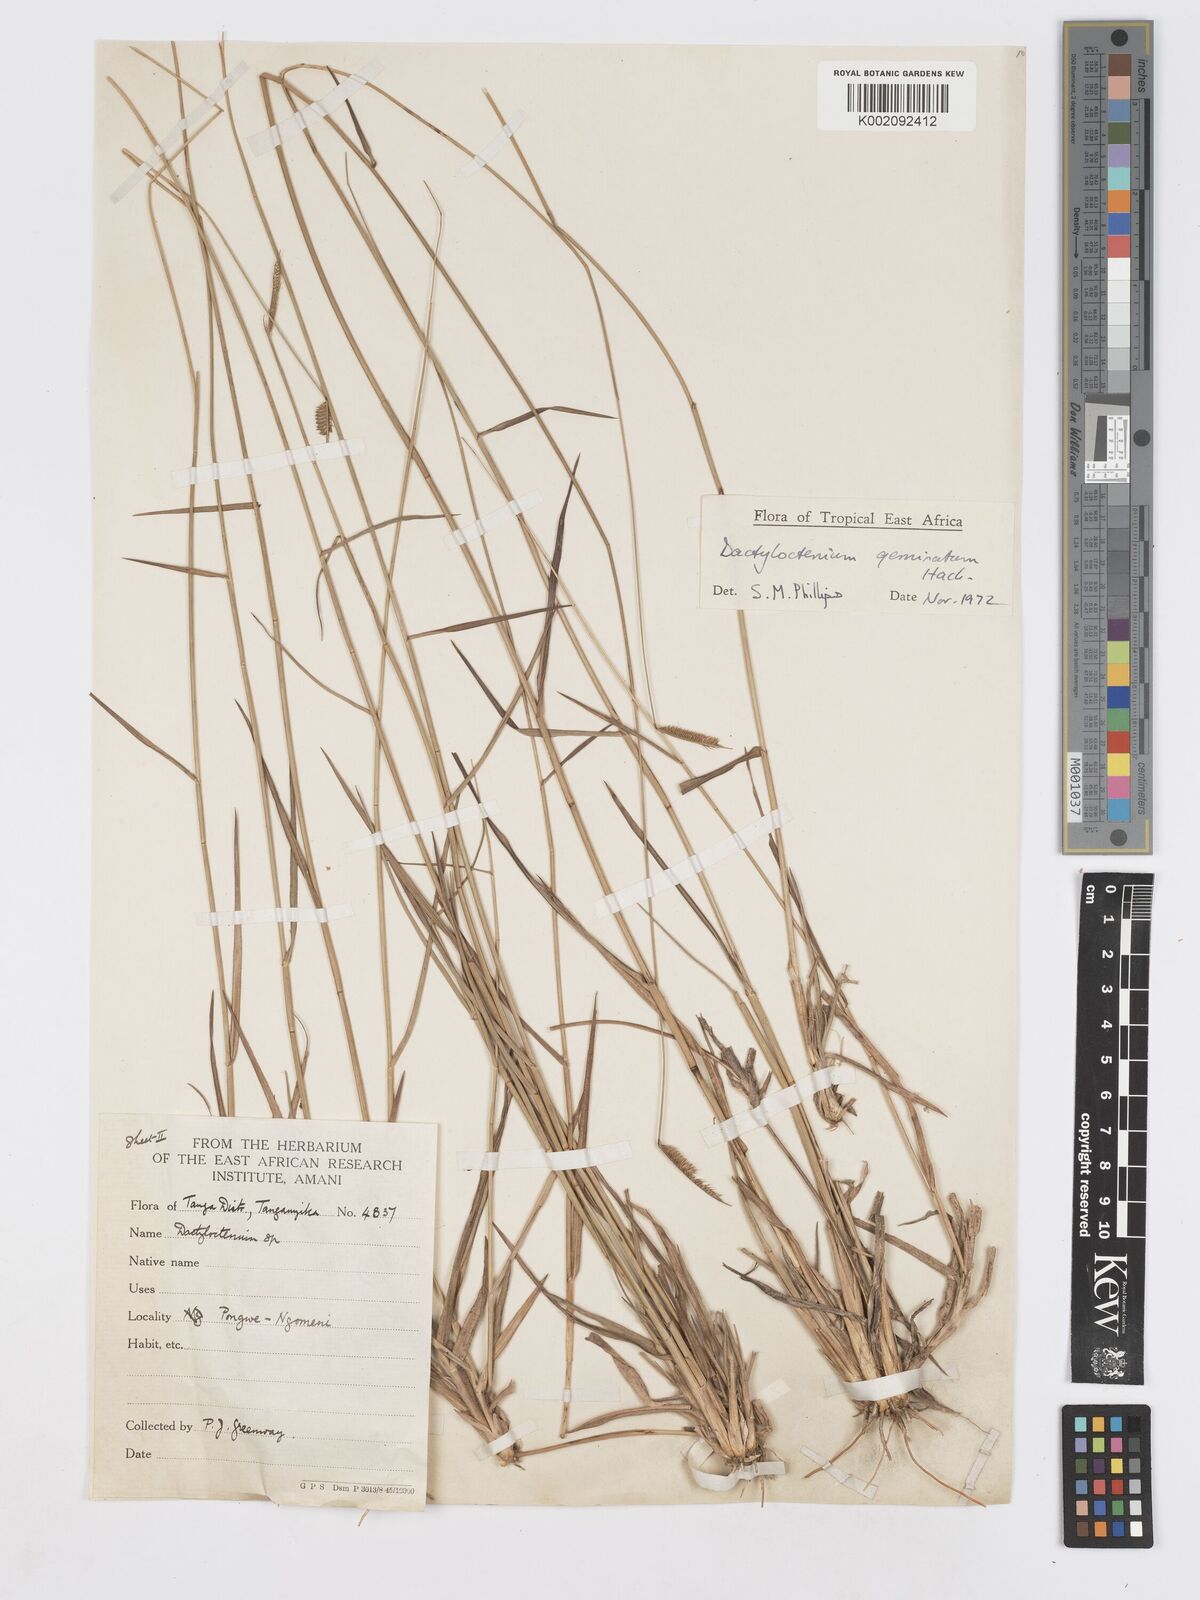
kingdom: Plantae
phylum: Tracheophyta
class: Liliopsida
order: Poales
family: Poaceae
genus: Dactyloctenium
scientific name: Dactyloctenium geminatum
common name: Crowsfoot grass
